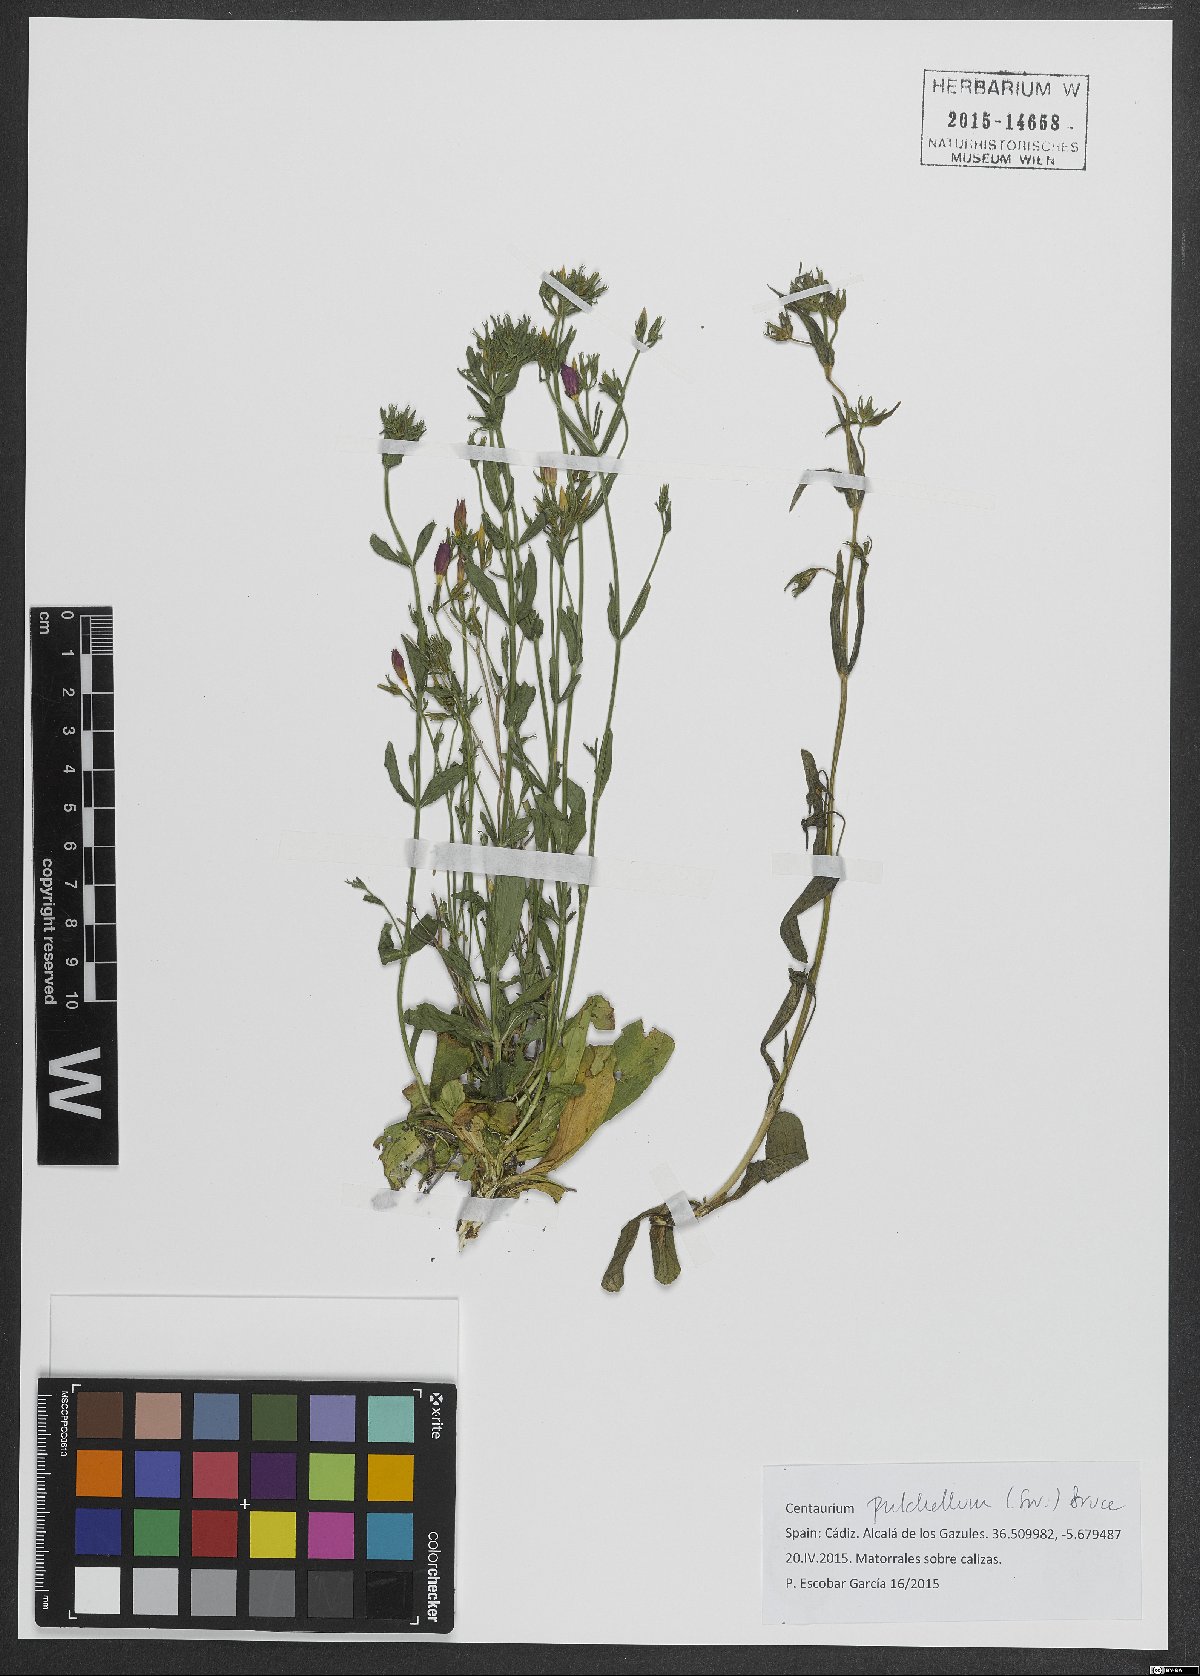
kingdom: Plantae
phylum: Tracheophyta
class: Magnoliopsida
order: Gentianales
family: Gentianaceae
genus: Centaurium
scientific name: Centaurium pulchellum
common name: Lesser centaury
